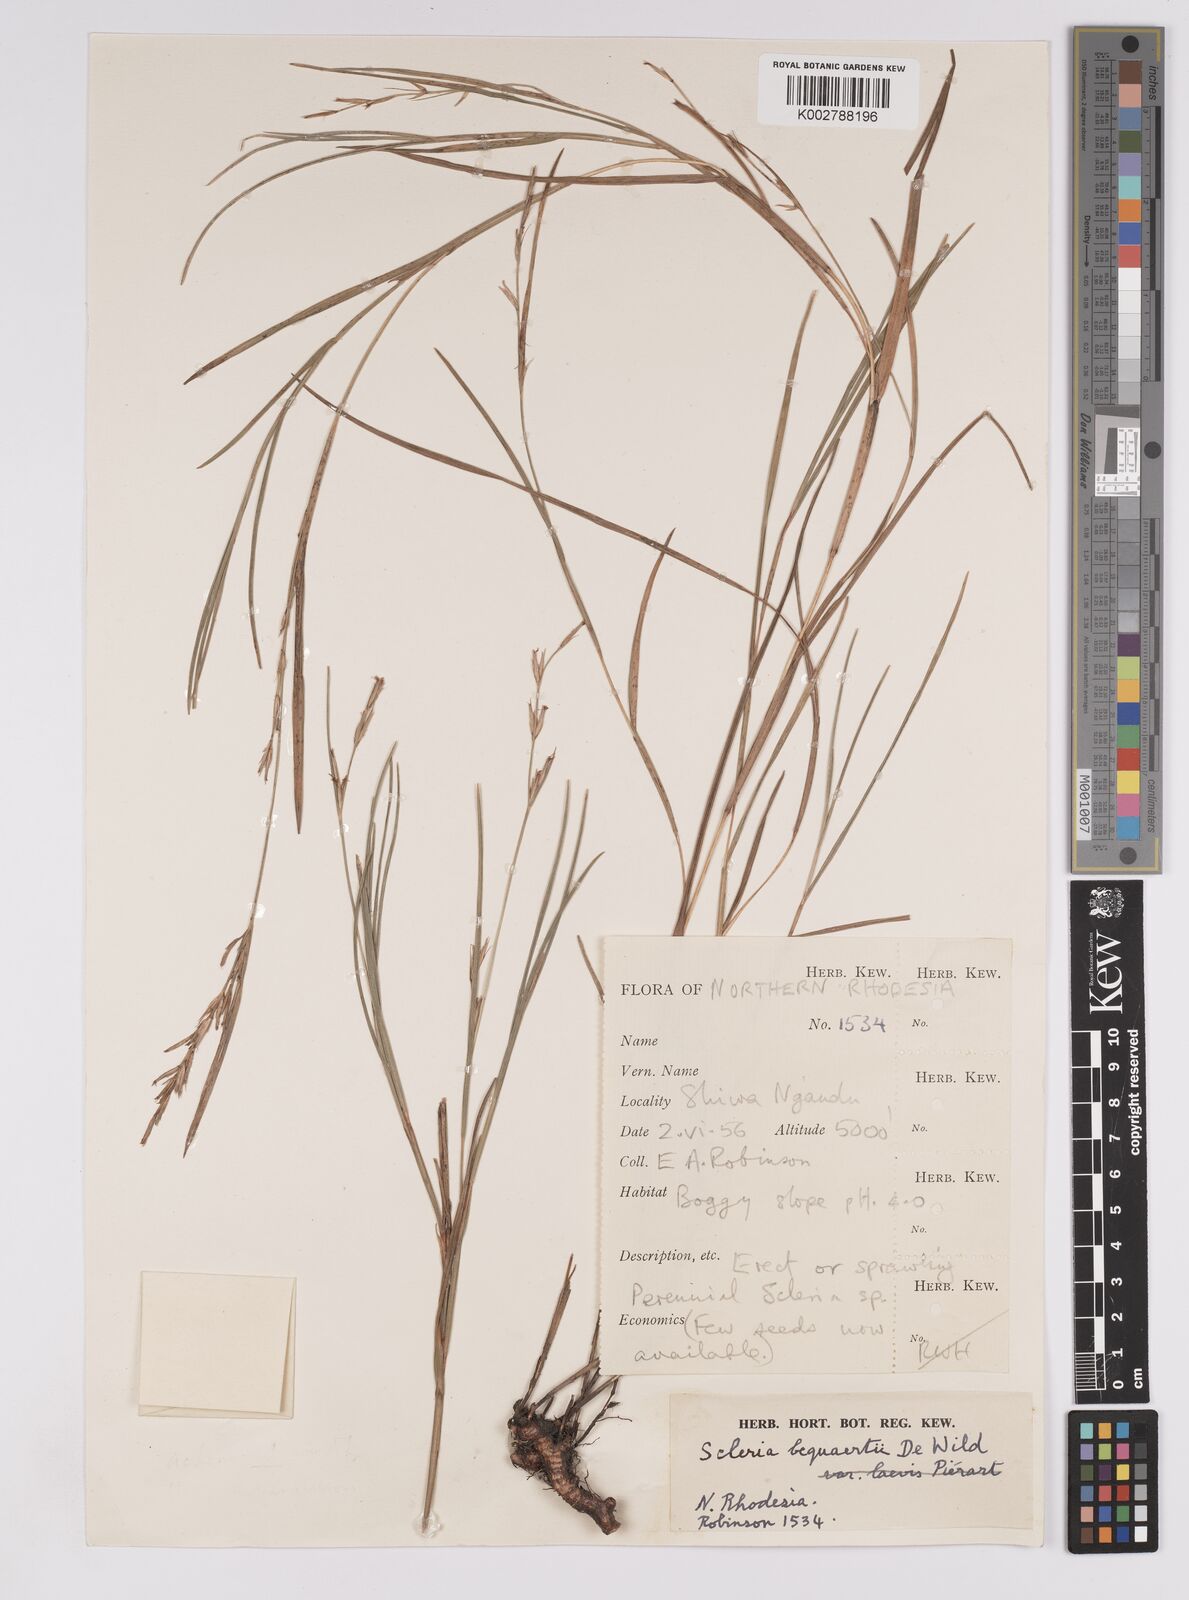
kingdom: Plantae
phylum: Tracheophyta
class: Liliopsida
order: Poales
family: Cyperaceae
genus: Scleria
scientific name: Scleria bequaertii
